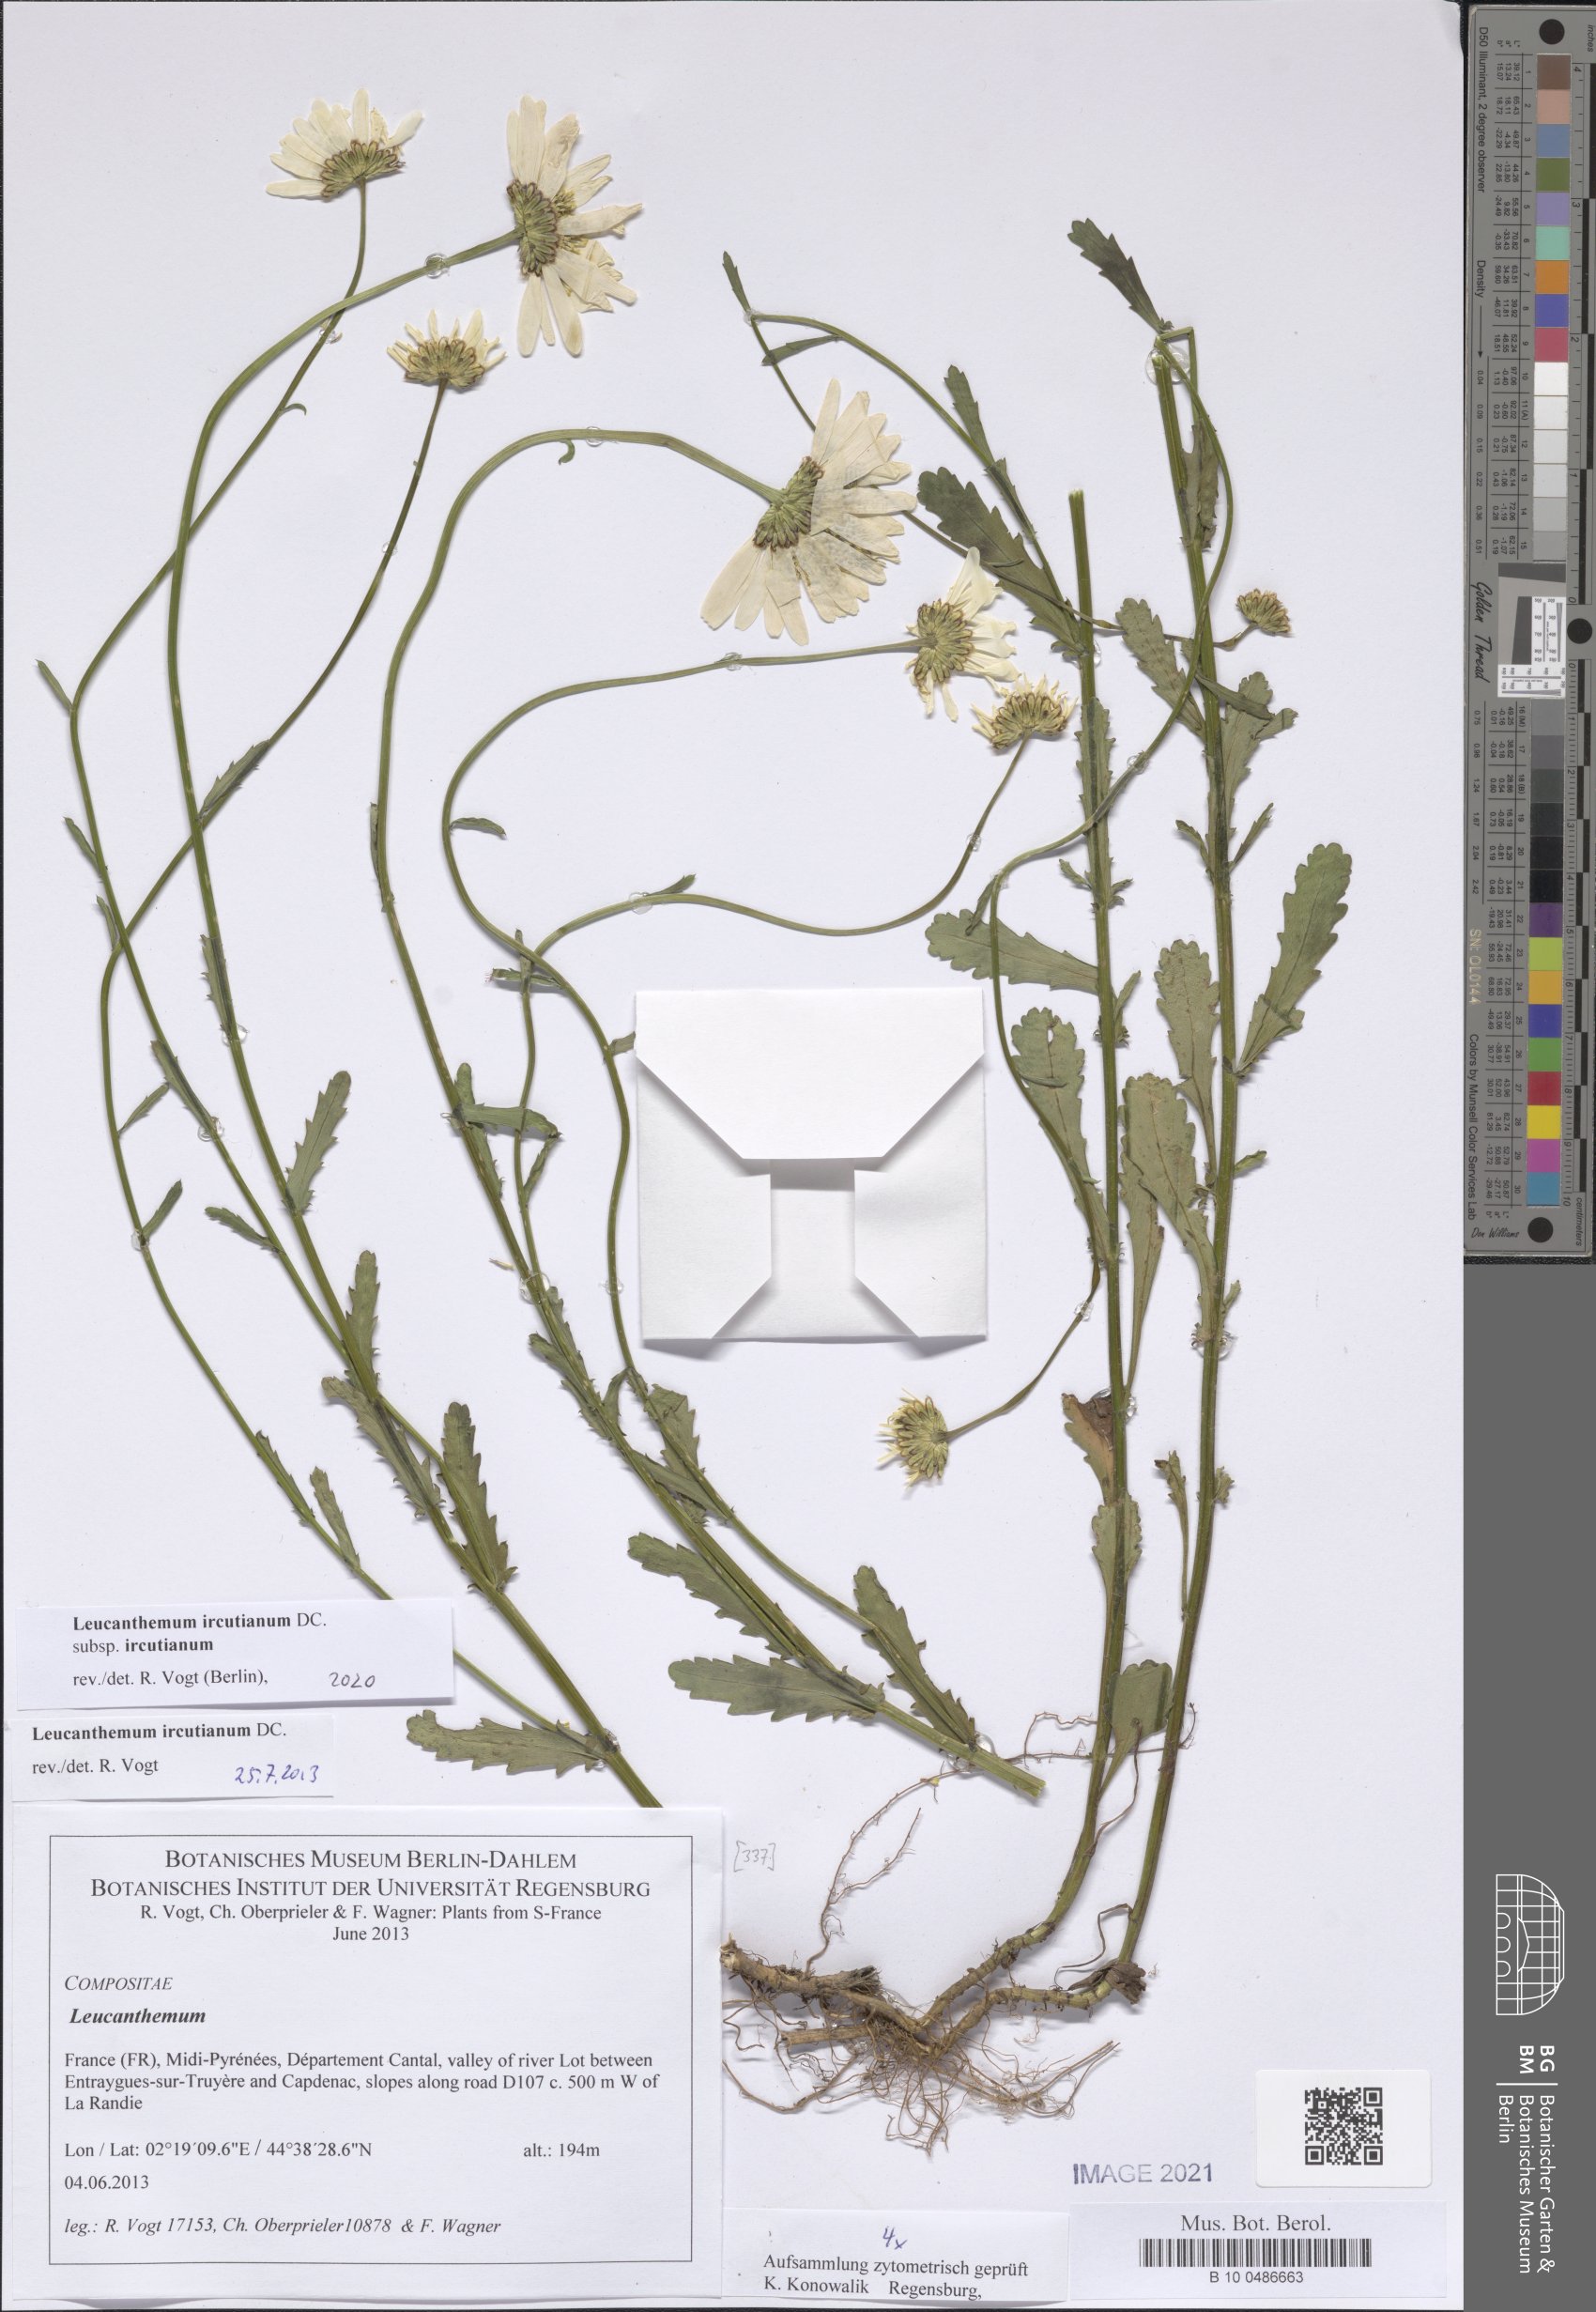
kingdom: Plantae
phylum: Tracheophyta
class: Magnoliopsida
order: Asterales
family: Asteraceae
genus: Leucanthemum
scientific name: Leucanthemum ircutianum
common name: Daisy
